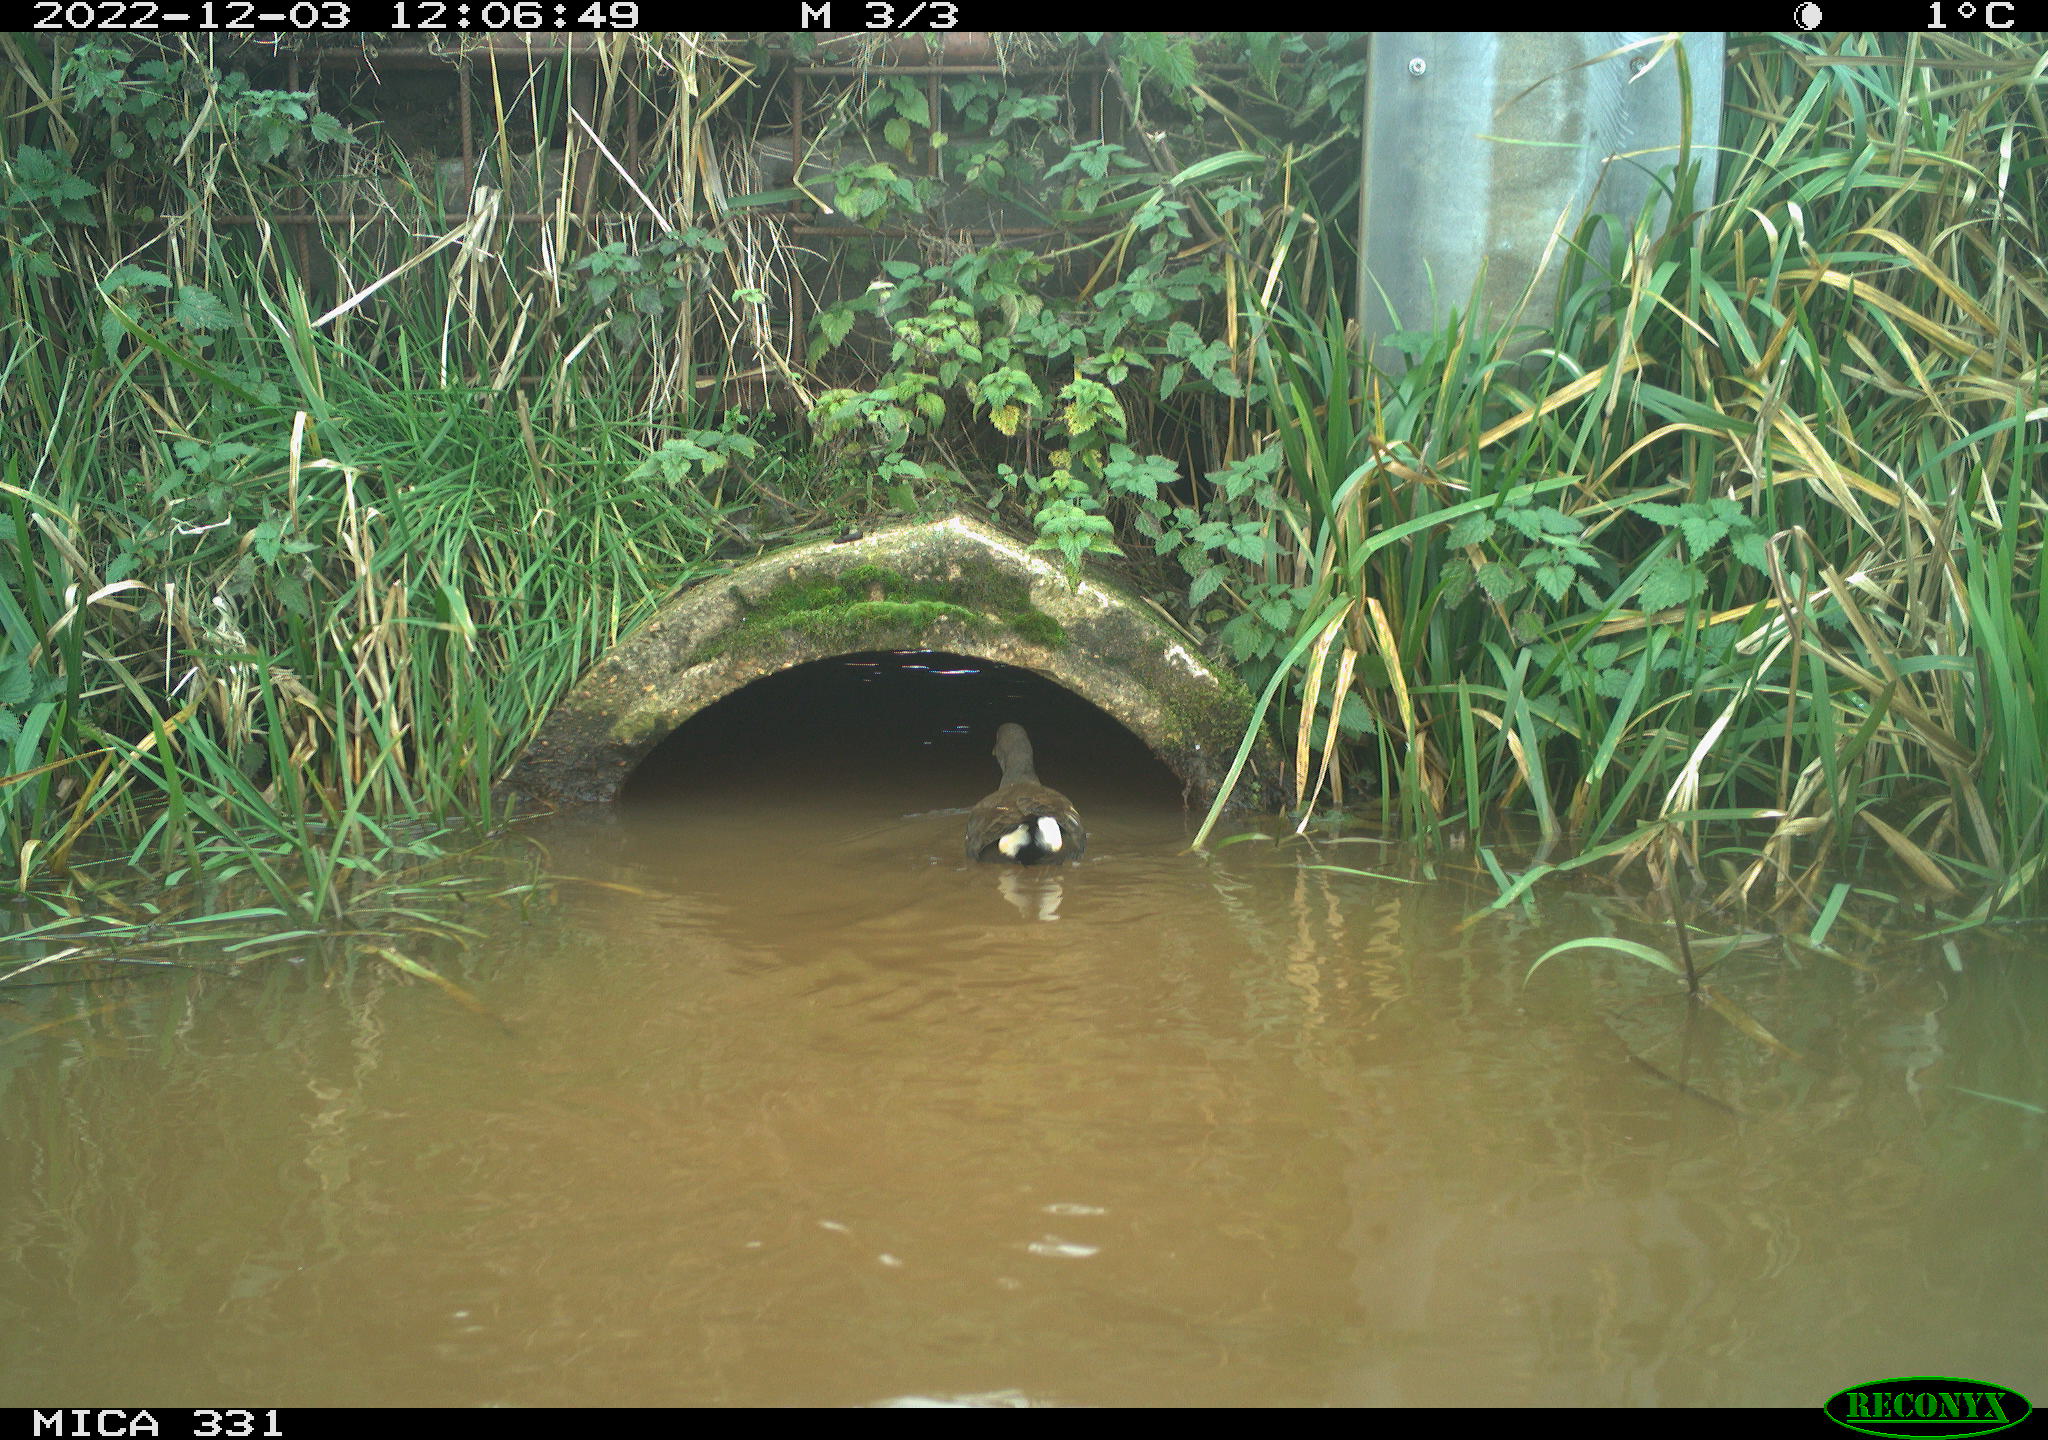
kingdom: Animalia
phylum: Chordata
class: Aves
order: Gruiformes
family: Rallidae
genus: Gallinula
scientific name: Gallinula chloropus
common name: Common moorhen
